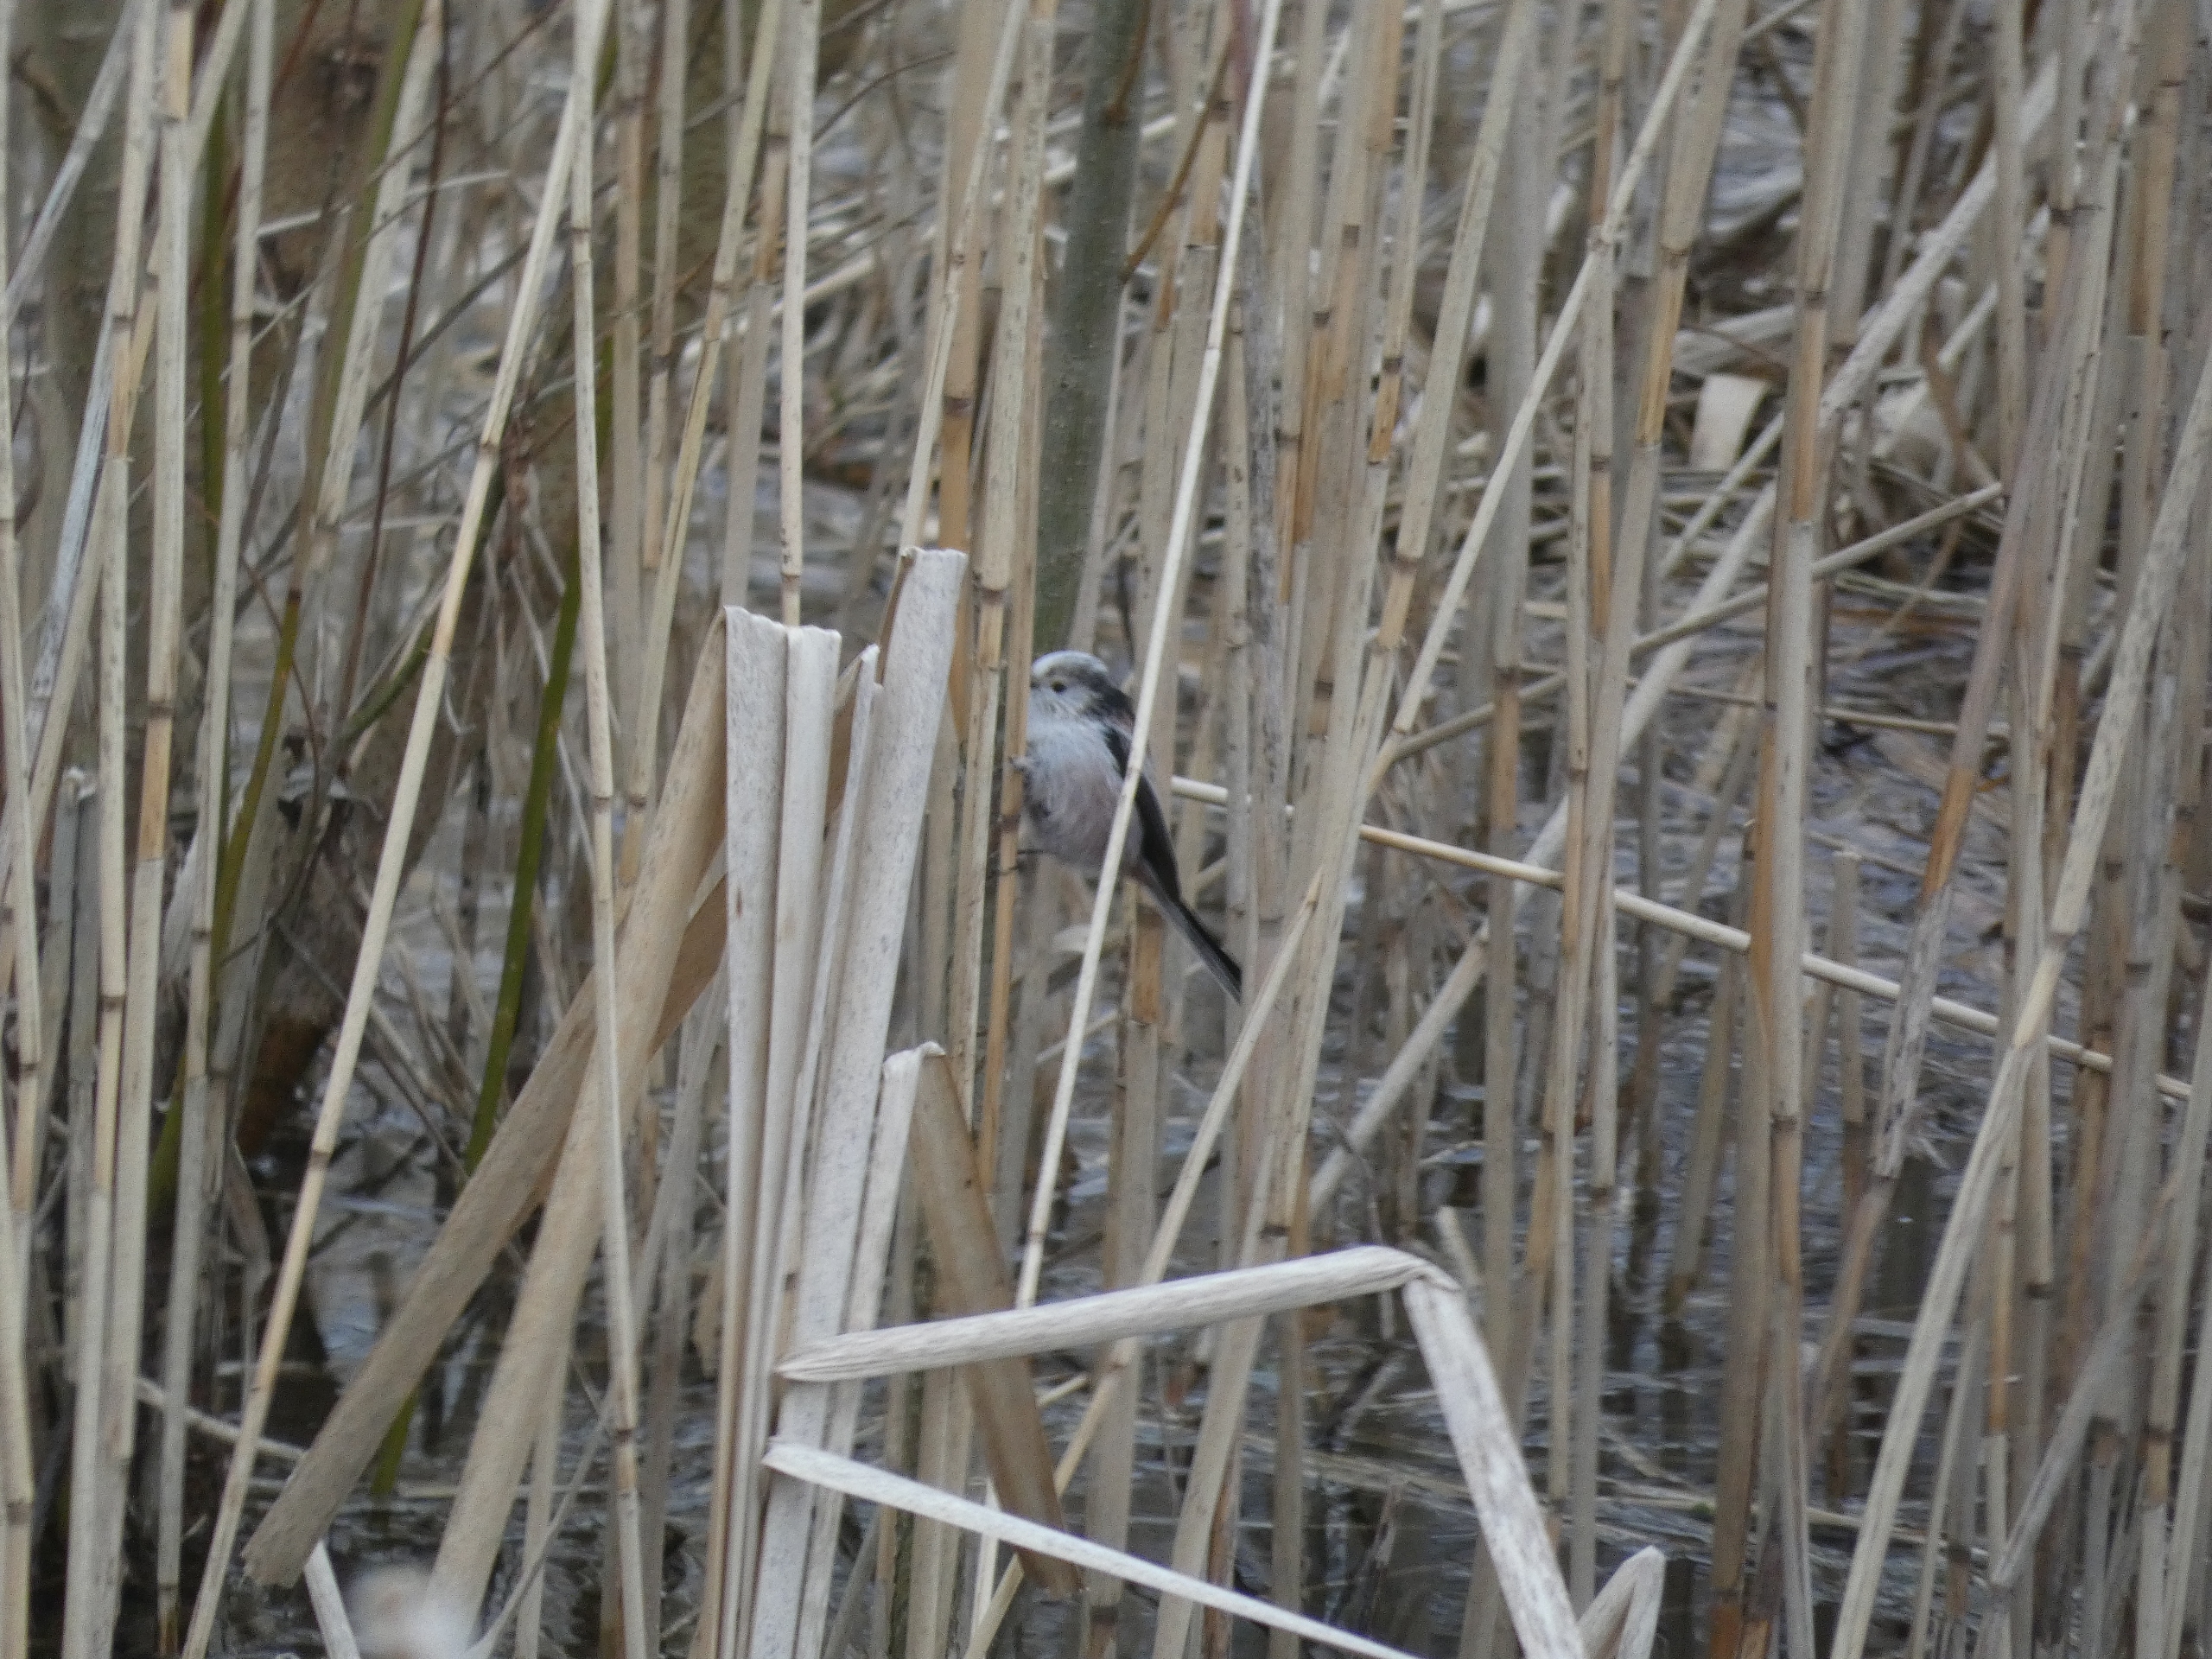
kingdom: Animalia
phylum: Chordata
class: Aves
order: Passeriformes
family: Aegithalidae
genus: Aegithalos
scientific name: Aegithalos caudatus
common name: Halemejse
